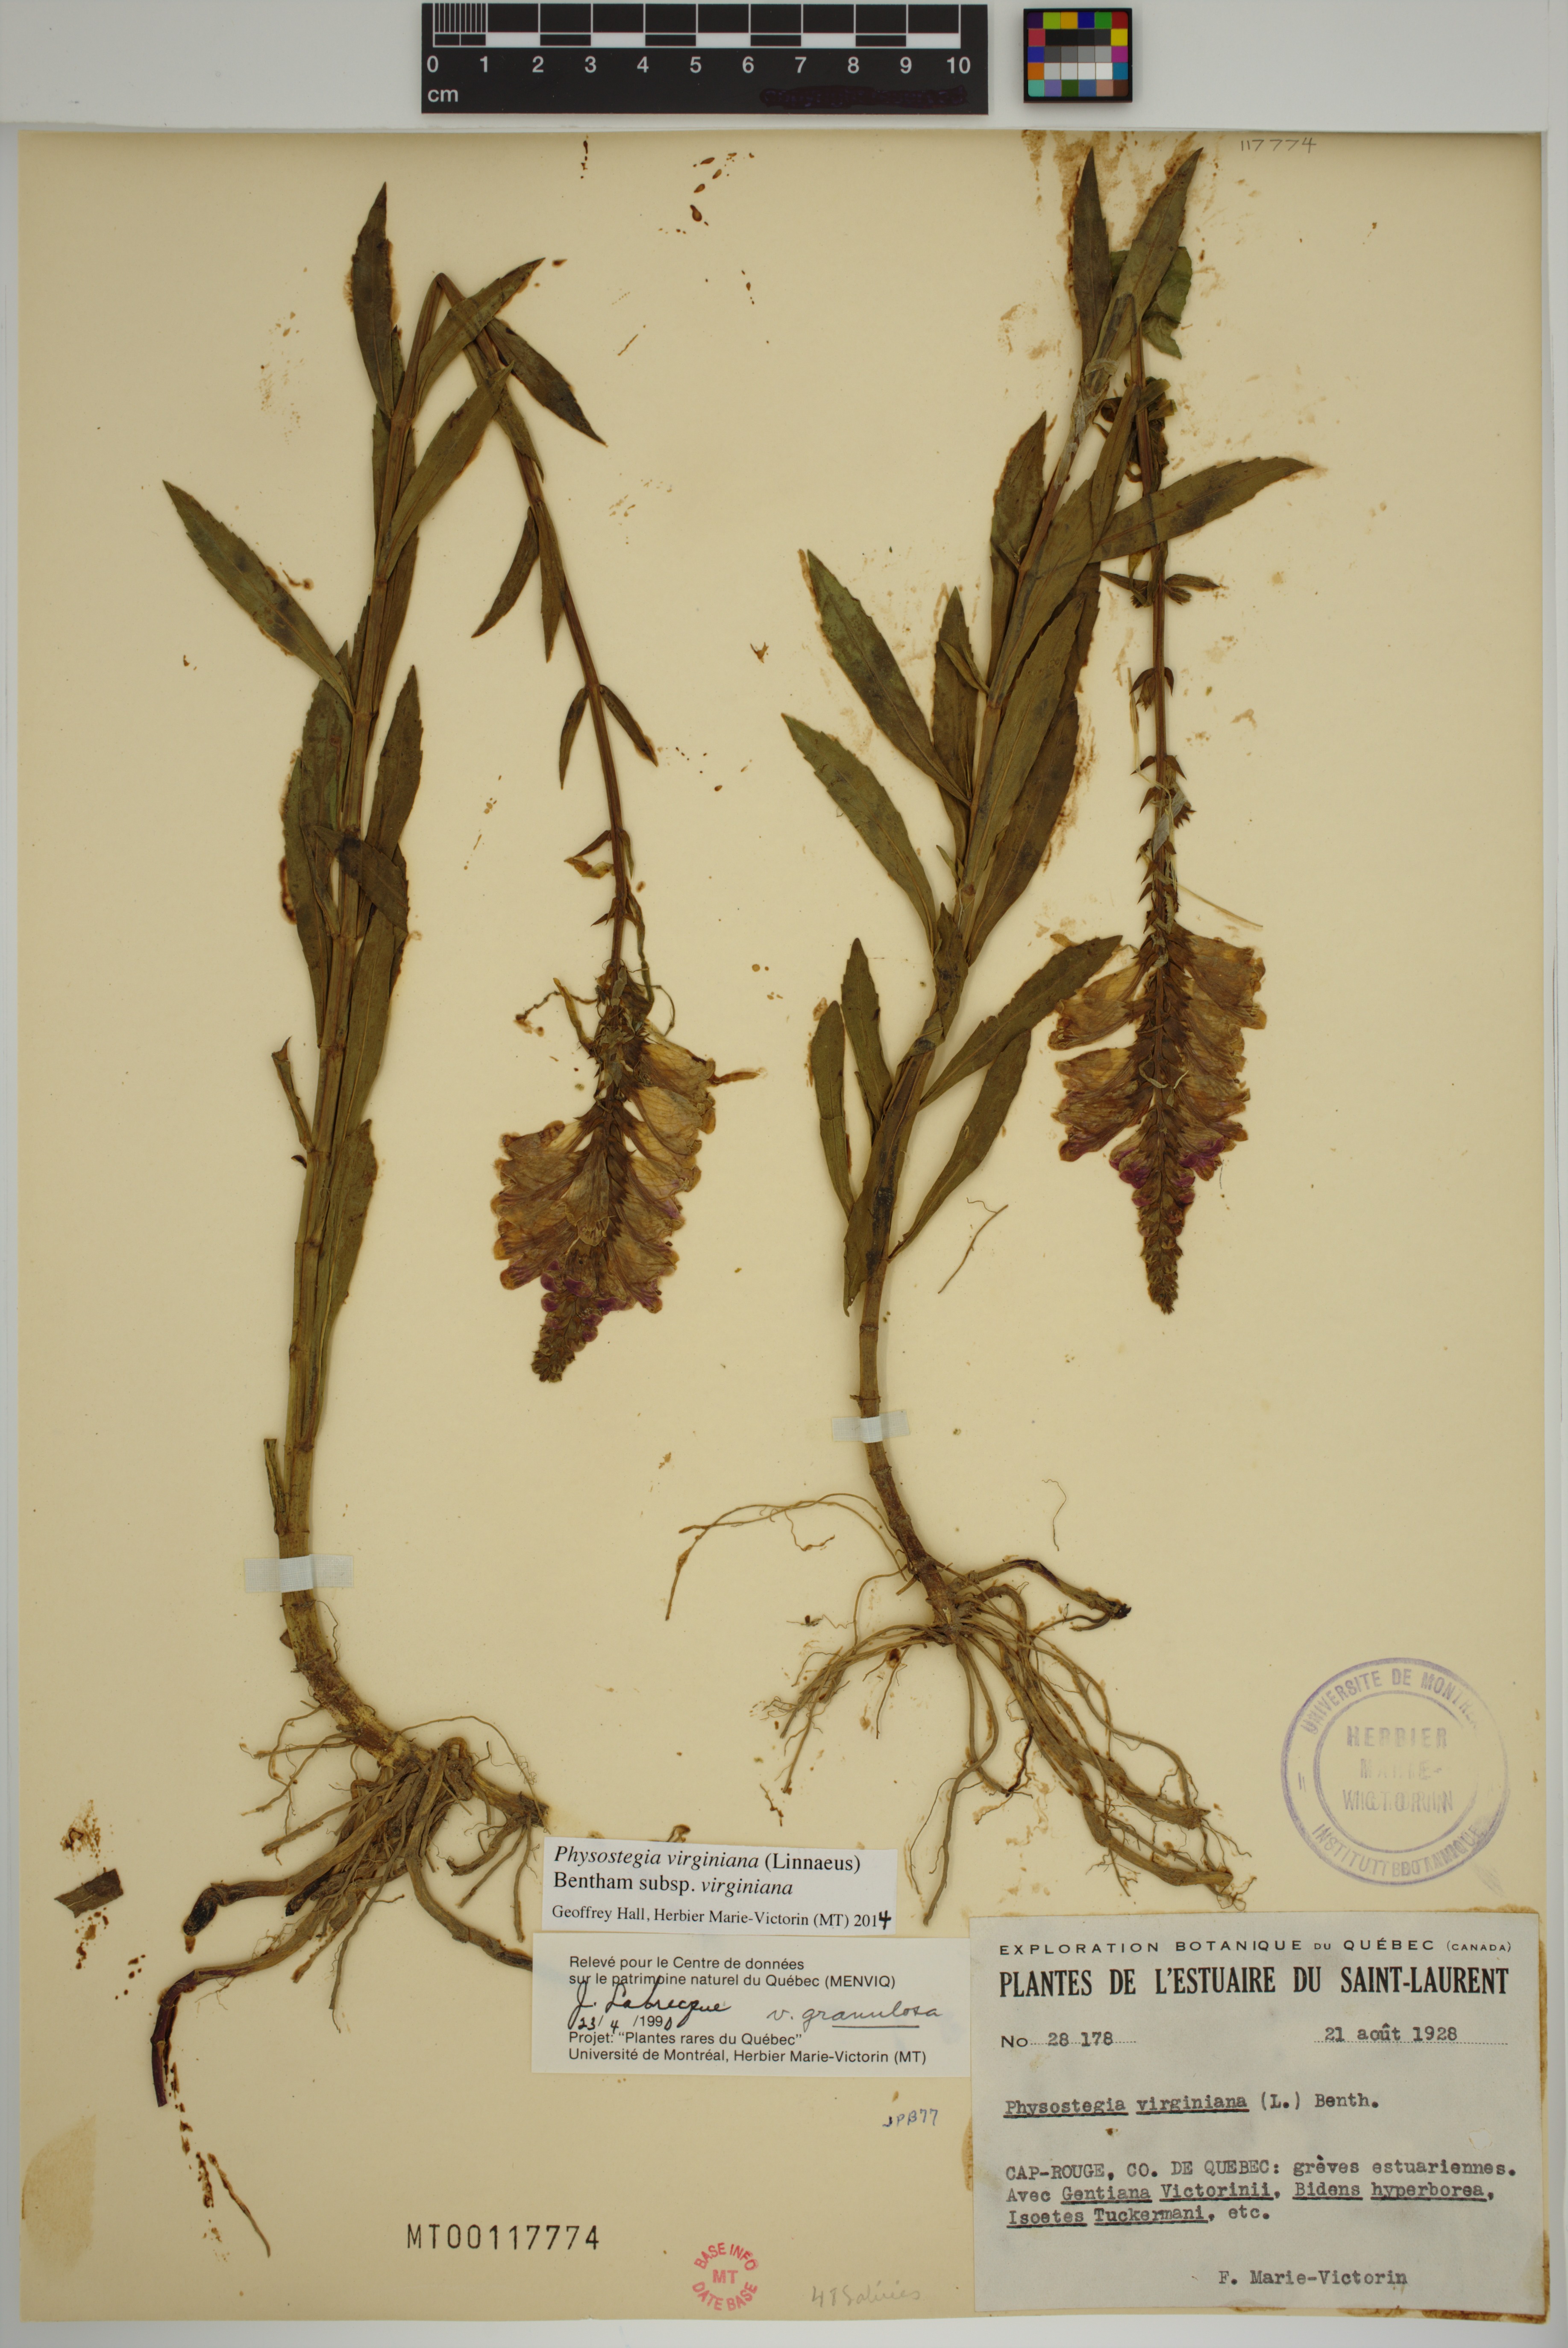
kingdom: Plantae
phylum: Tracheophyta
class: Magnoliopsida
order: Lamiales
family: Lamiaceae
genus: Physostegia
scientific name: Physostegia virginiana
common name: Obedient-plant
